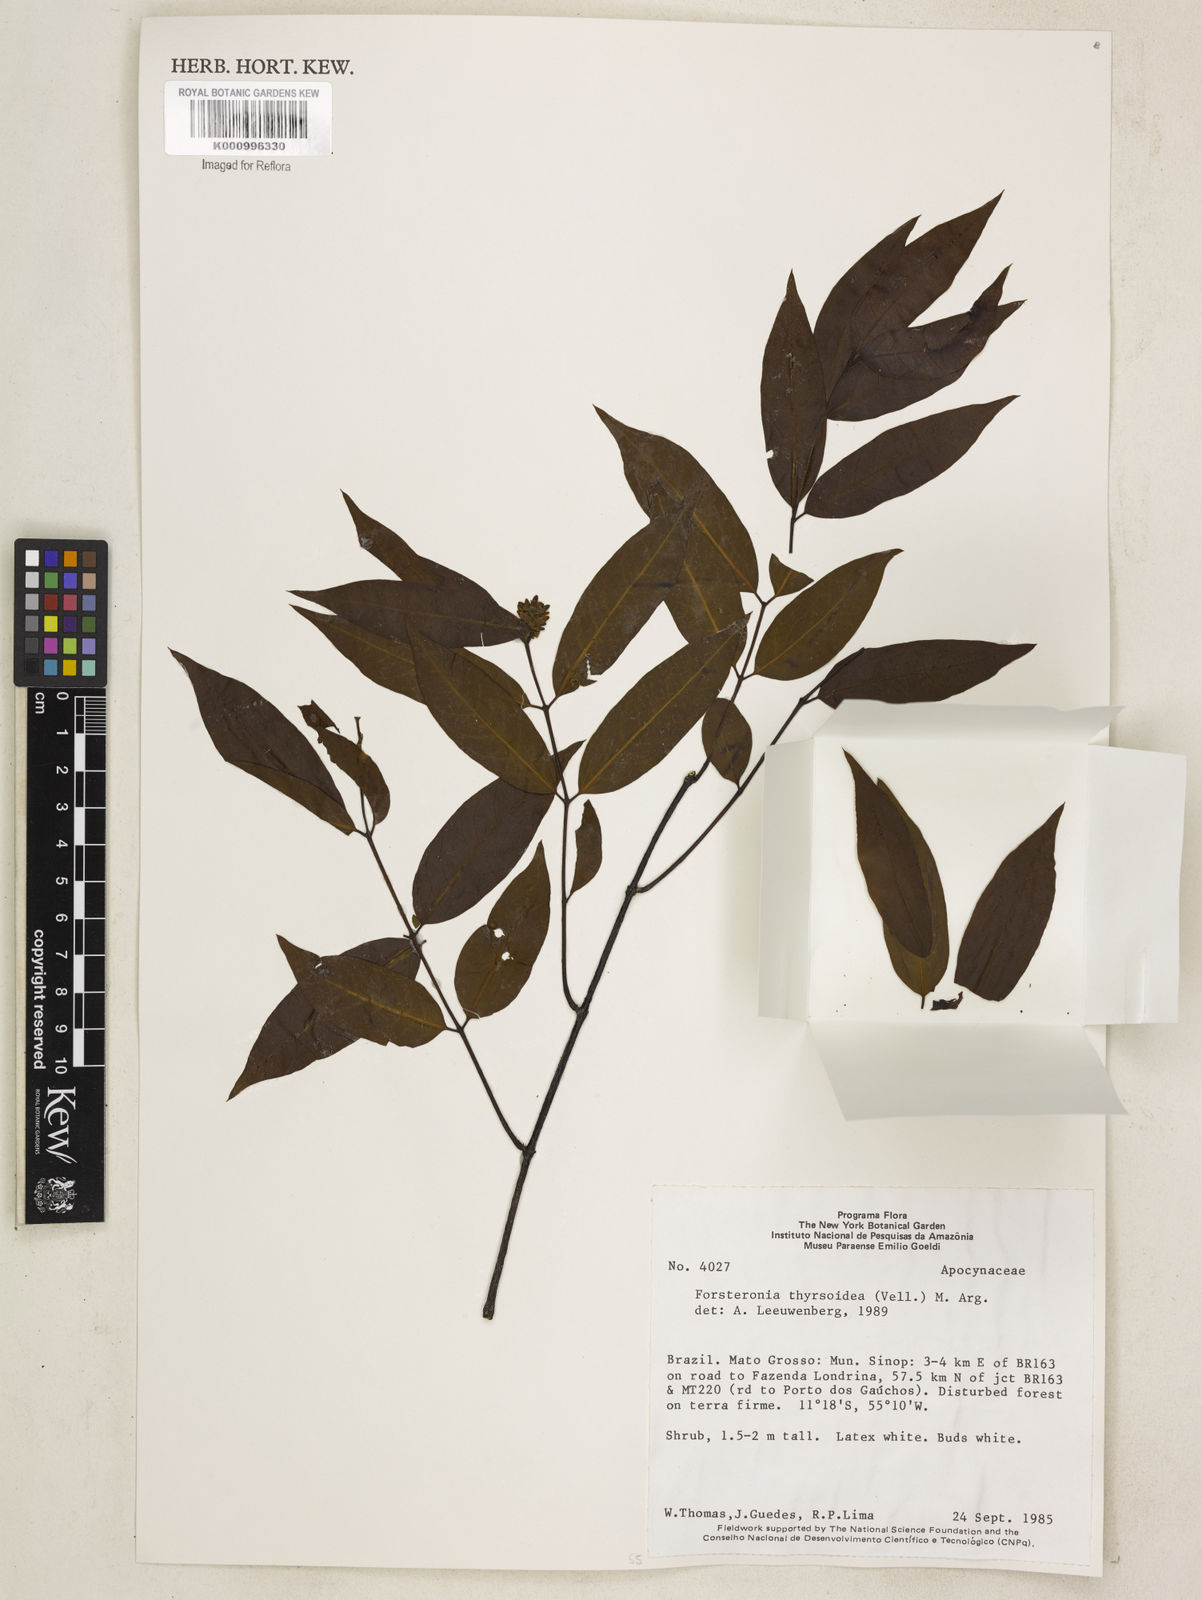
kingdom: Plantae
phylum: Tracheophyta
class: Magnoliopsida
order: Gentianales
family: Apocynaceae
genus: Forsteronia
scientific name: Forsteronia
